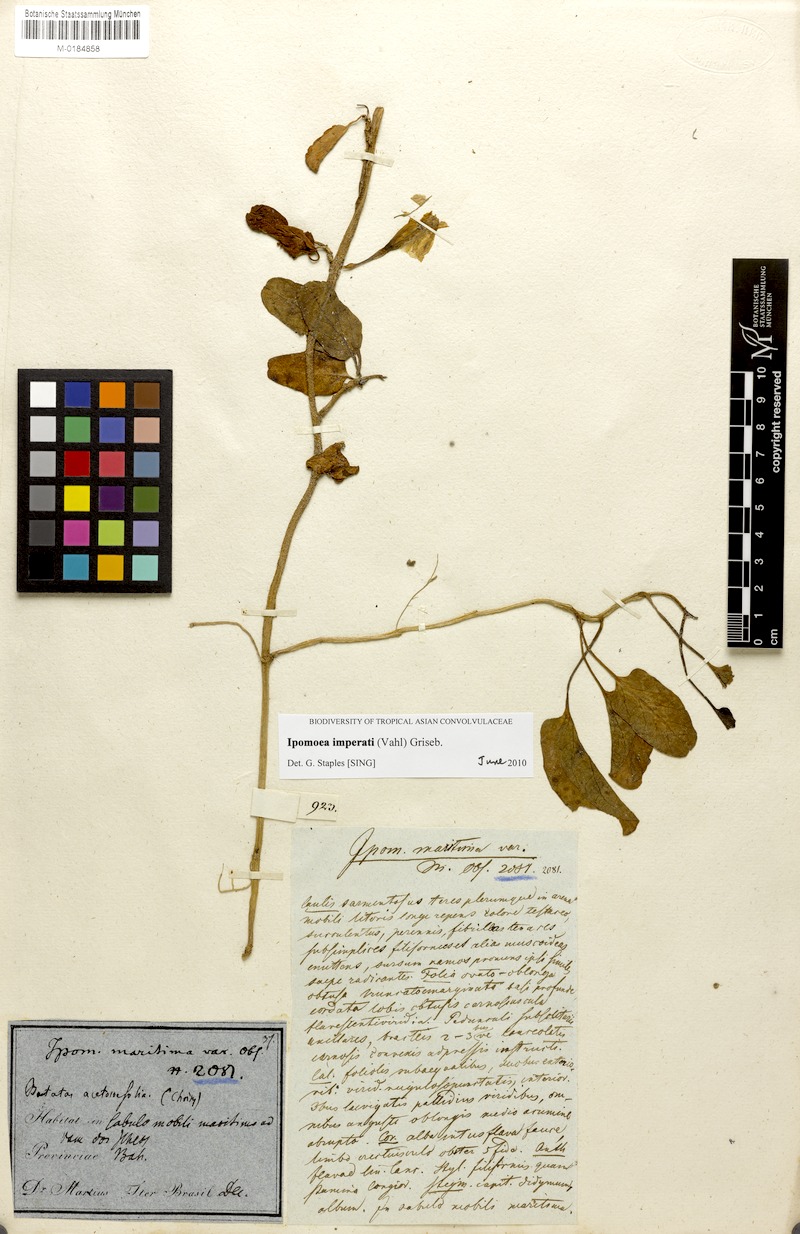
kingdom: Plantae
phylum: Tracheophyta
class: Magnoliopsida
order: Solanales
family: Convolvulaceae
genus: Ipomoea
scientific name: Ipomoea imperati
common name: Fiddle-leaf morning-glory
